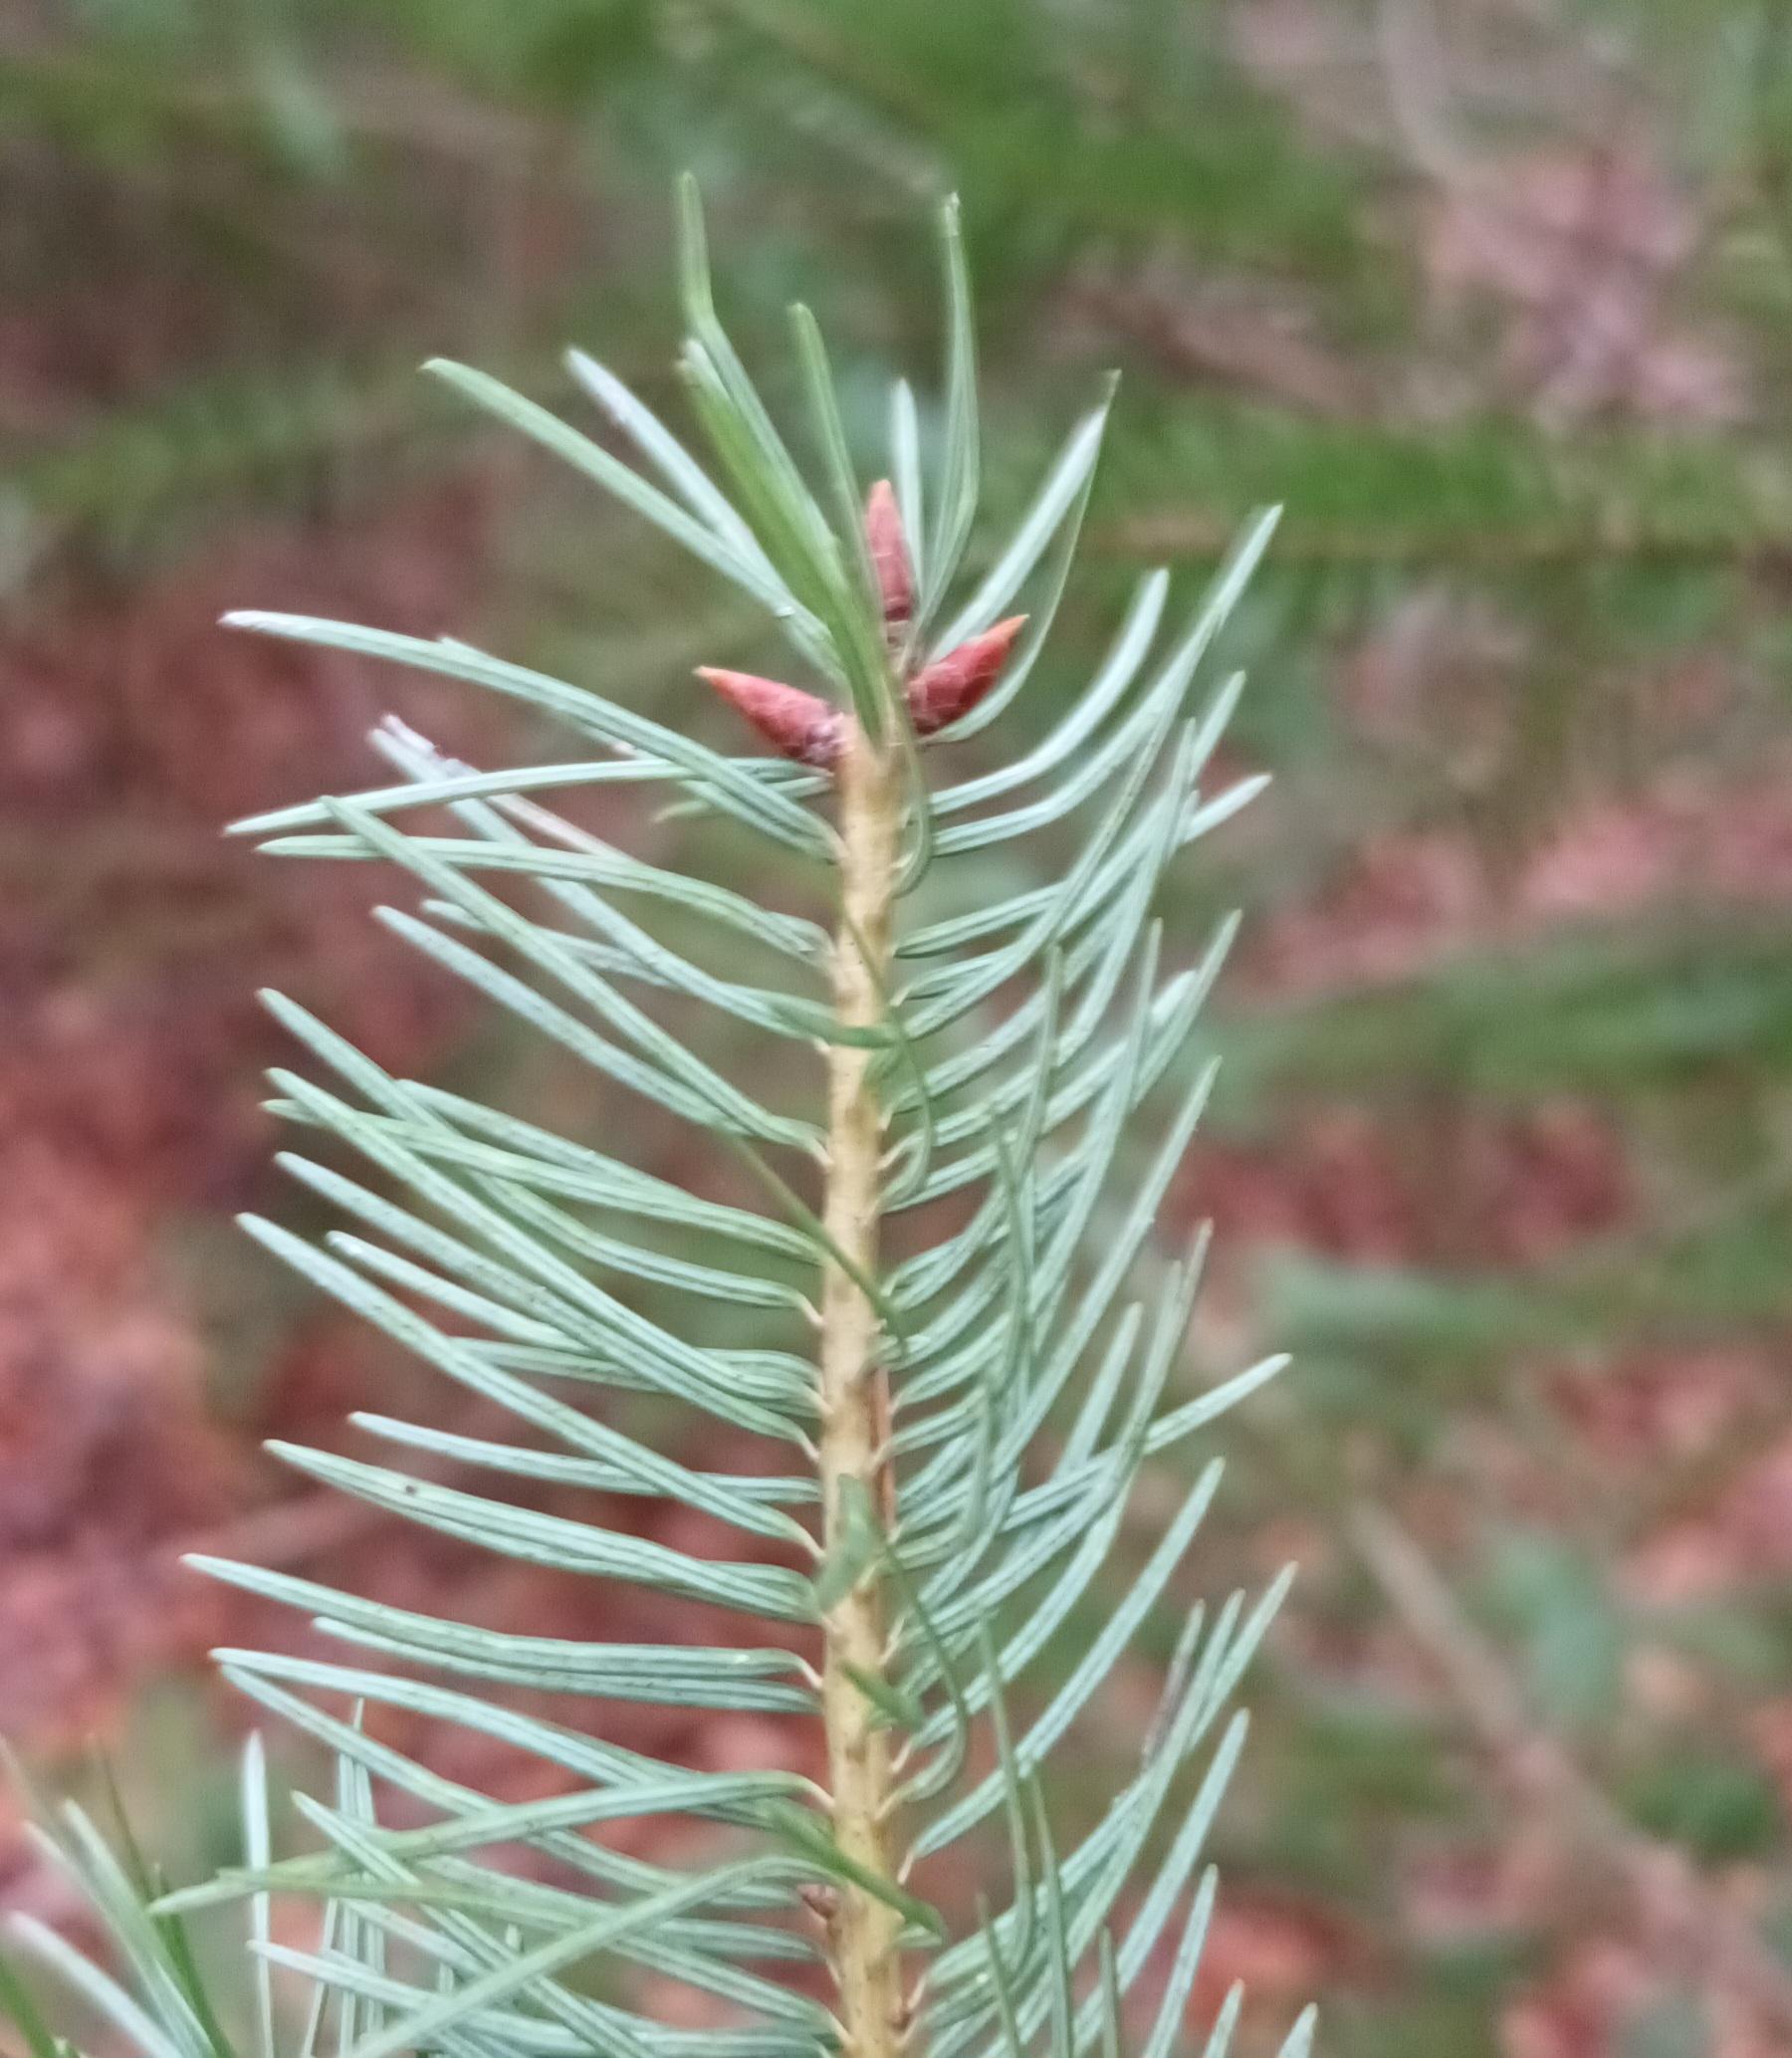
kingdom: Plantae
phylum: Tracheophyta
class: Pinopsida
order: Pinales
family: Pinaceae
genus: Pseudotsuga
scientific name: Pseudotsuga menziesii
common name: Douglasgran
